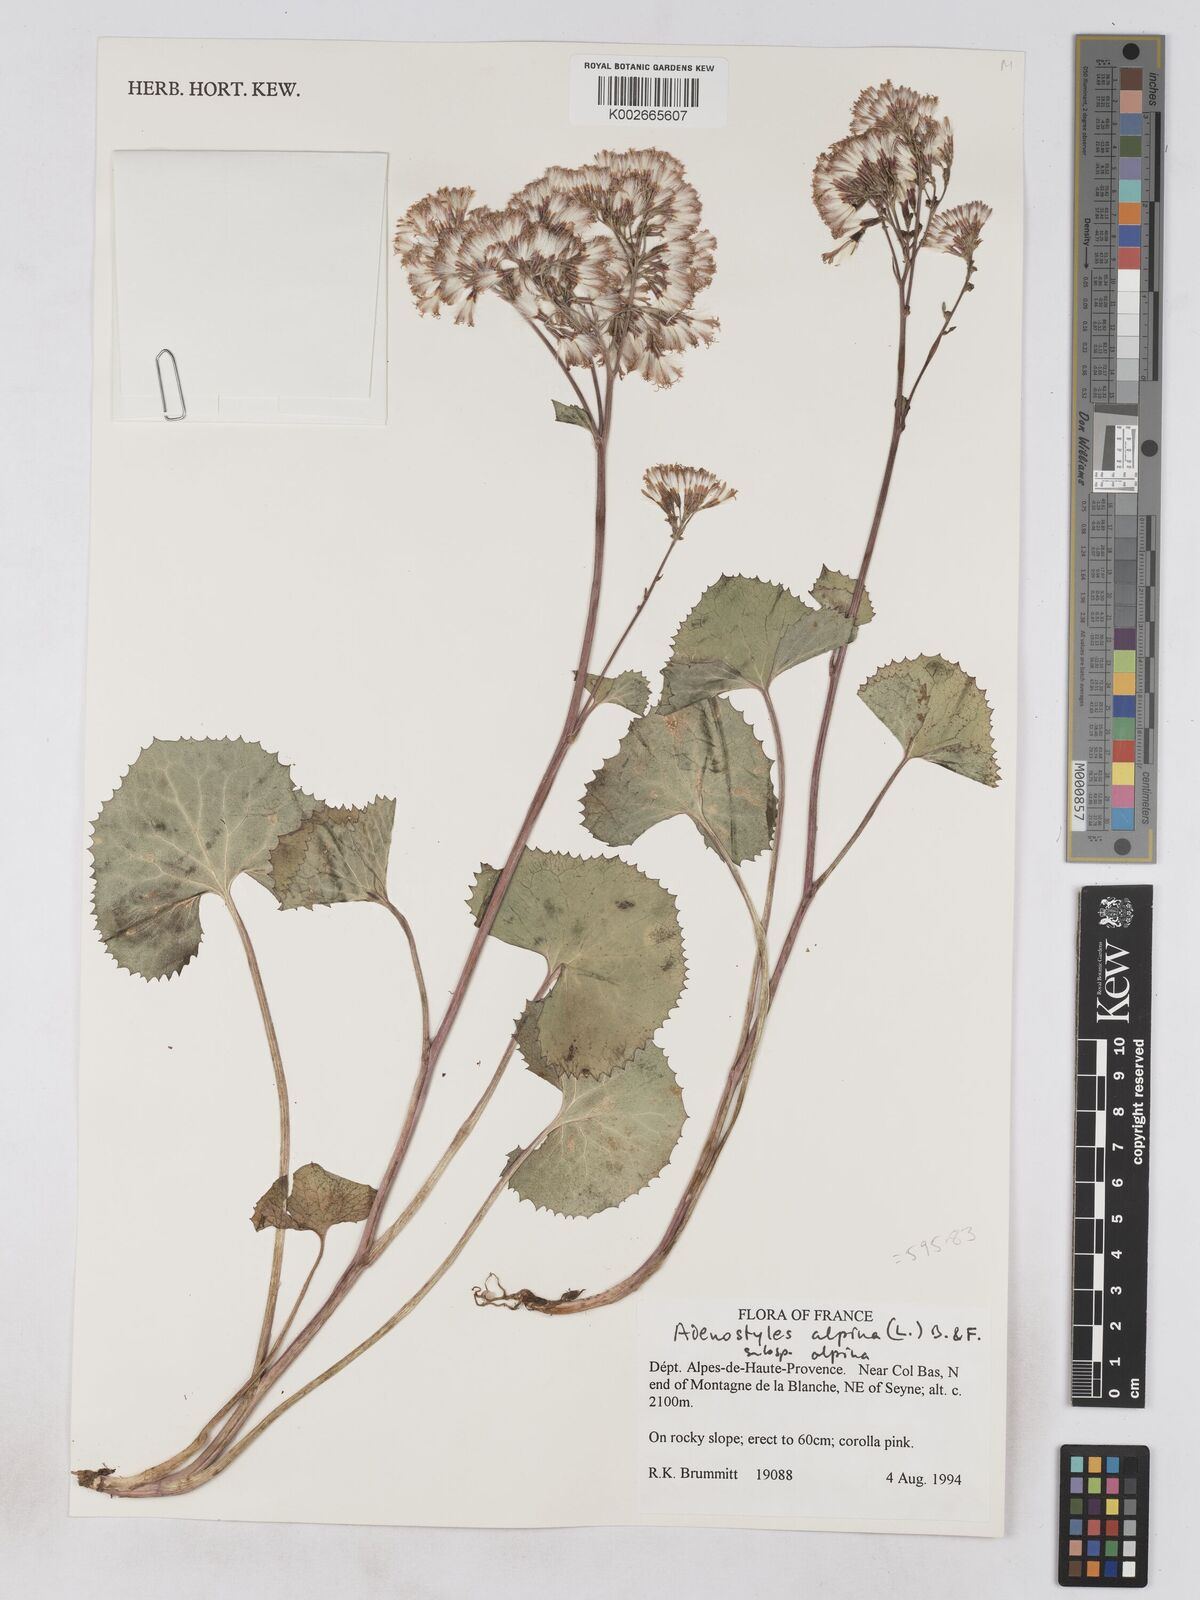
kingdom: Plantae
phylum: Tracheophyta
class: Magnoliopsida
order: Asterales
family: Asteraceae
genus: Adenostyles
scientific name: Adenostyles alpina
